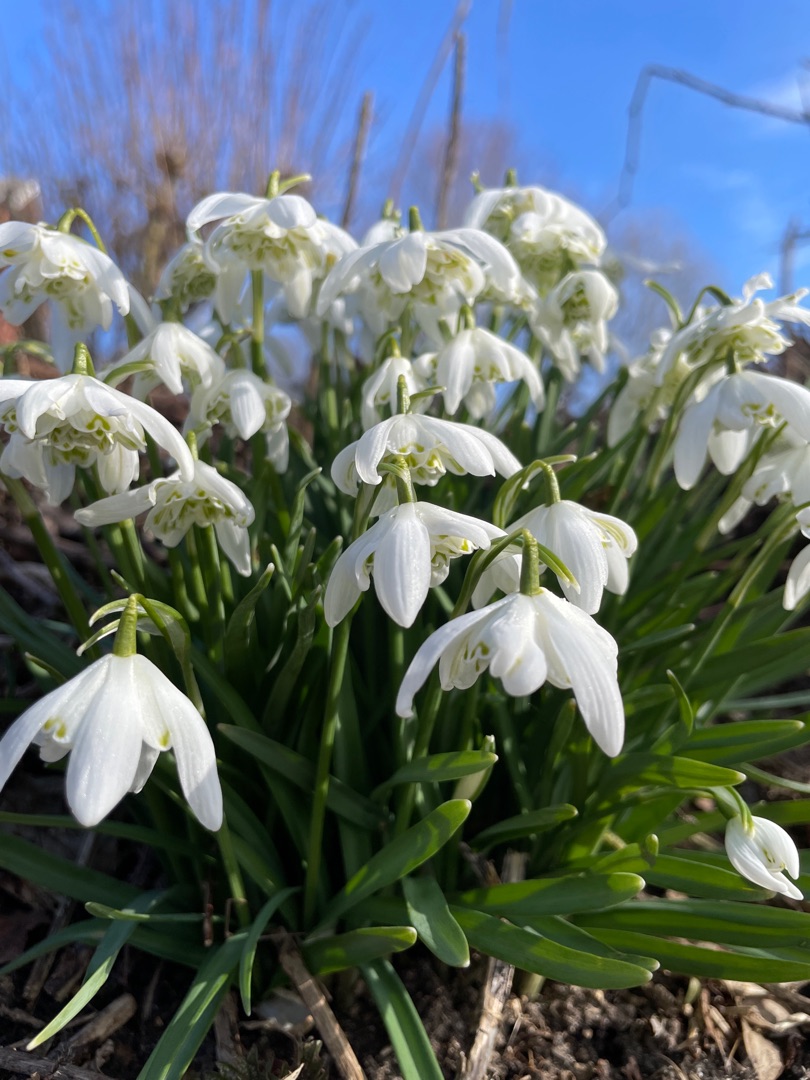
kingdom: Plantae
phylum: Tracheophyta
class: Liliopsida
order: Asparagales
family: Amaryllidaceae
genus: Galanthus
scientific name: Galanthus nivalis
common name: Vintergæk
